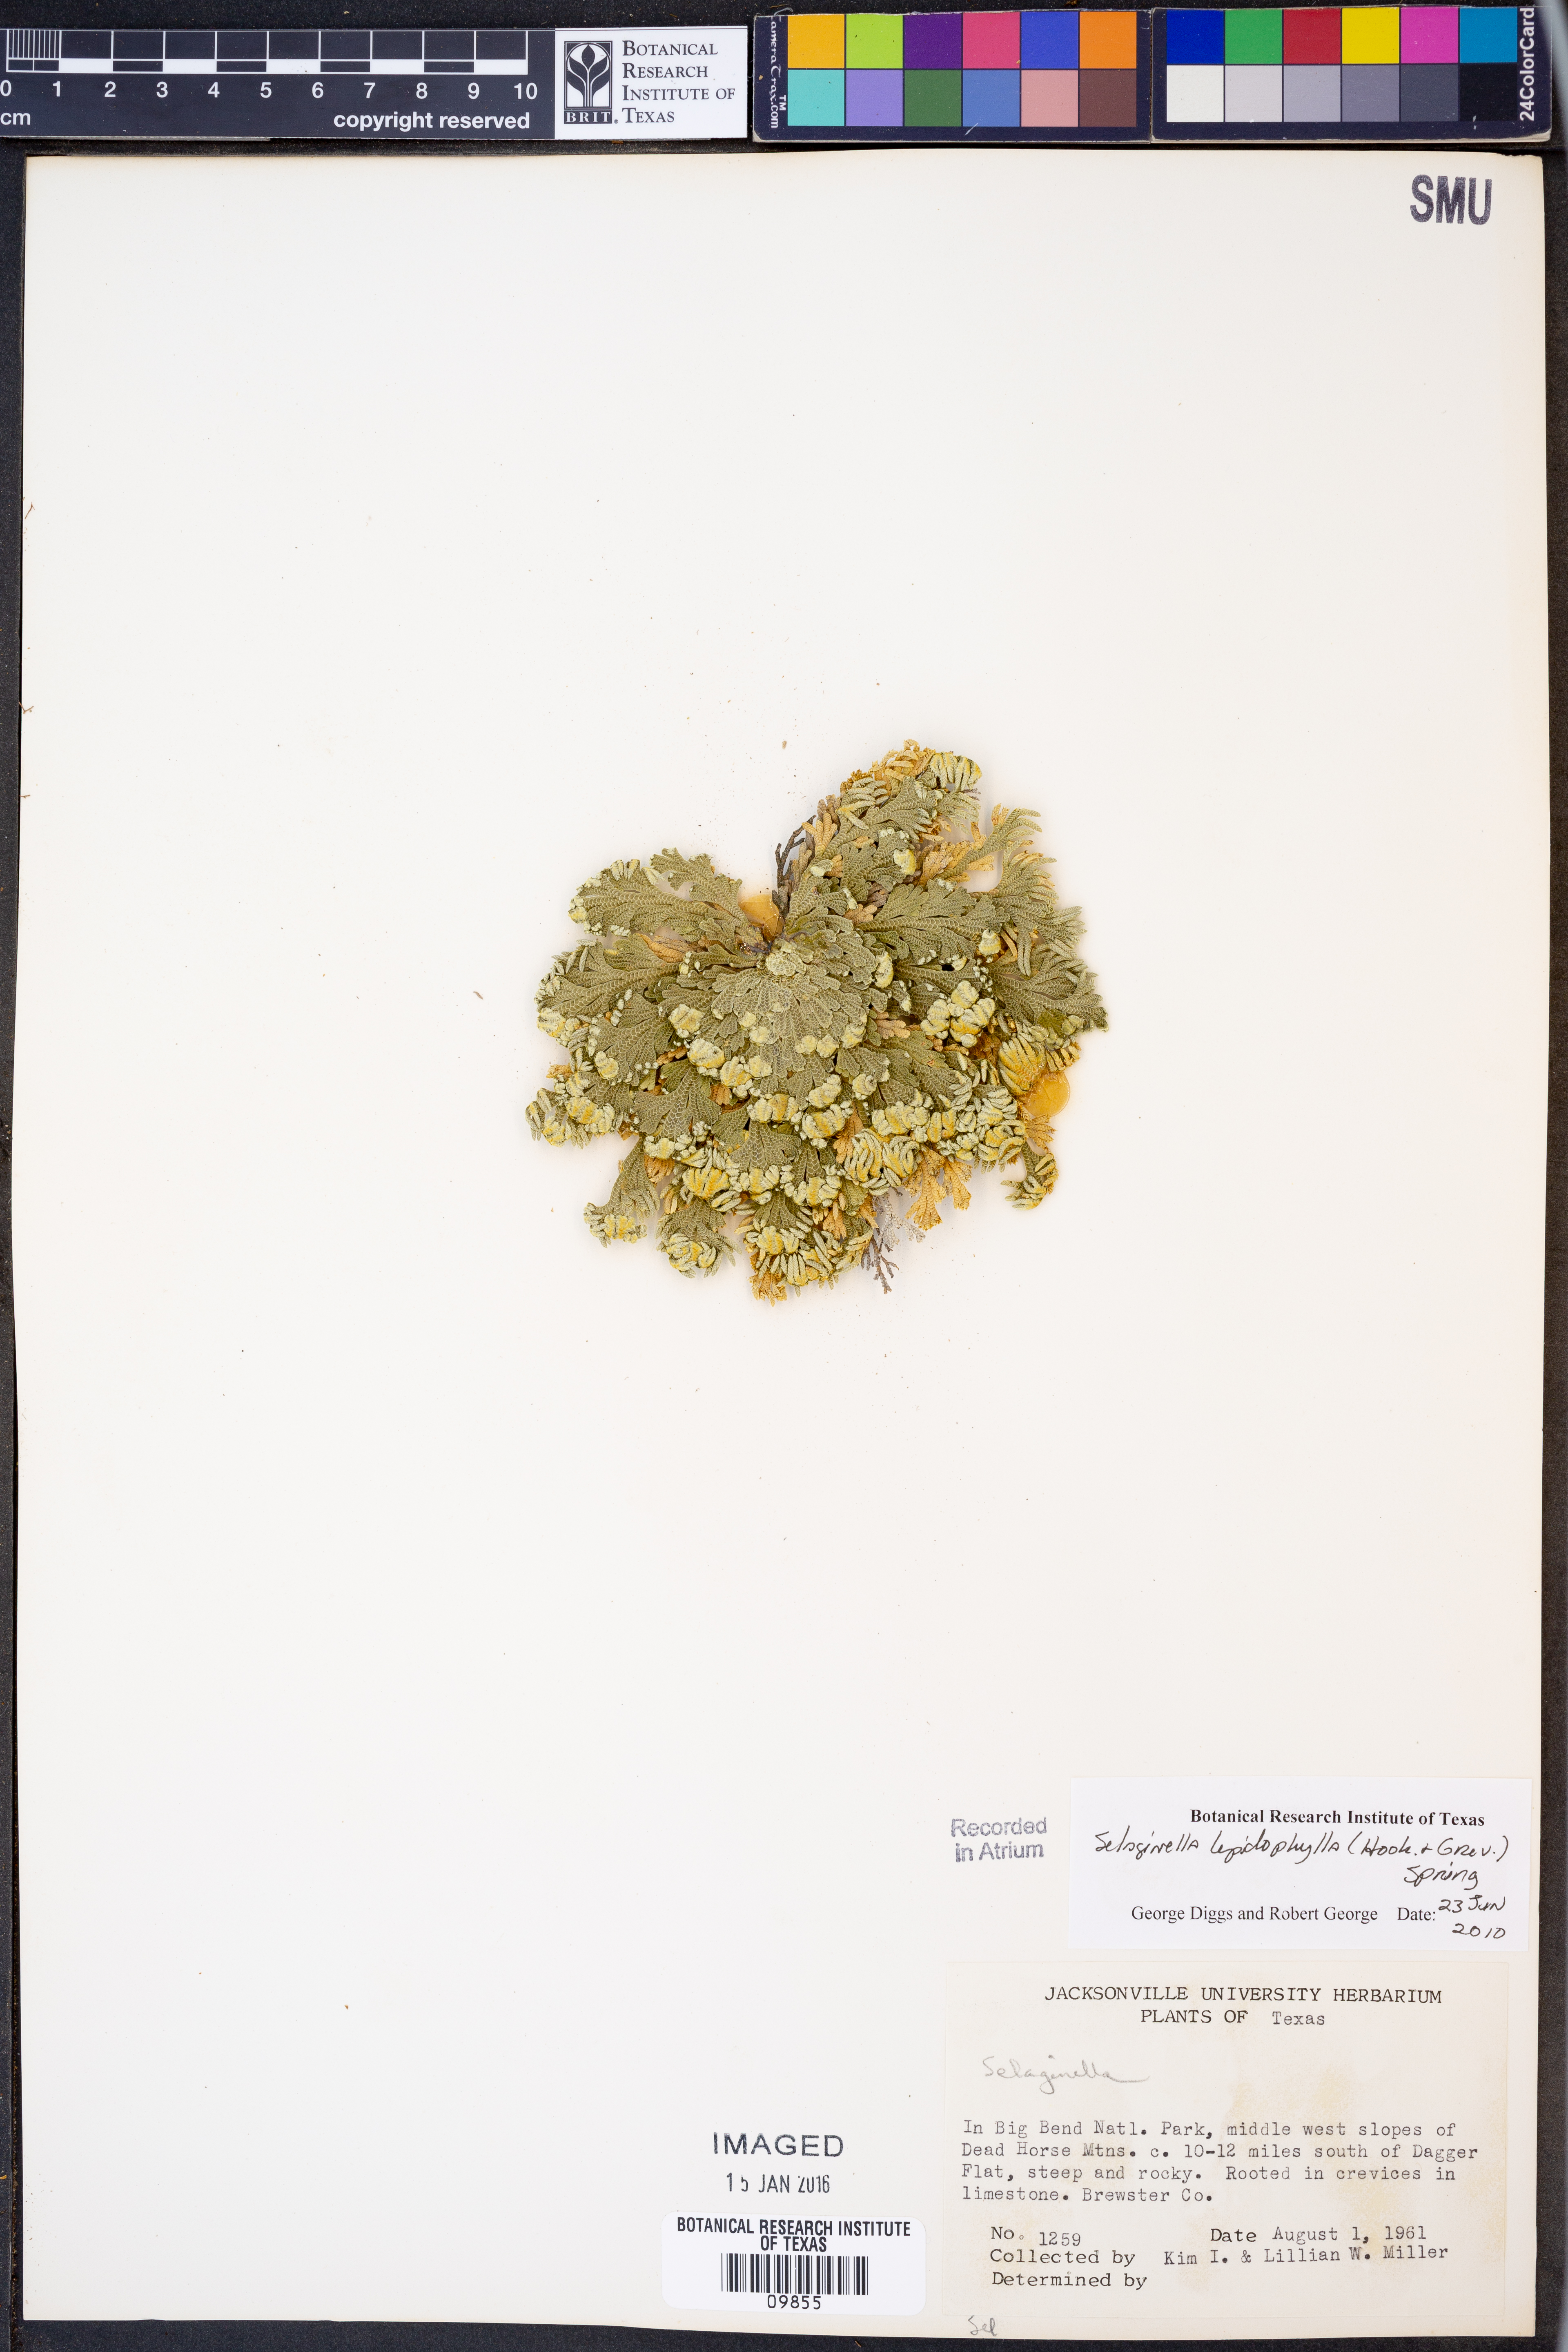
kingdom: Plantae
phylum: Tracheophyta
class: Lycopodiopsida
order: Selaginellales
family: Selaginellaceae
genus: Selaginella
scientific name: Selaginella lepidophylla
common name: Rose-of-jericho
